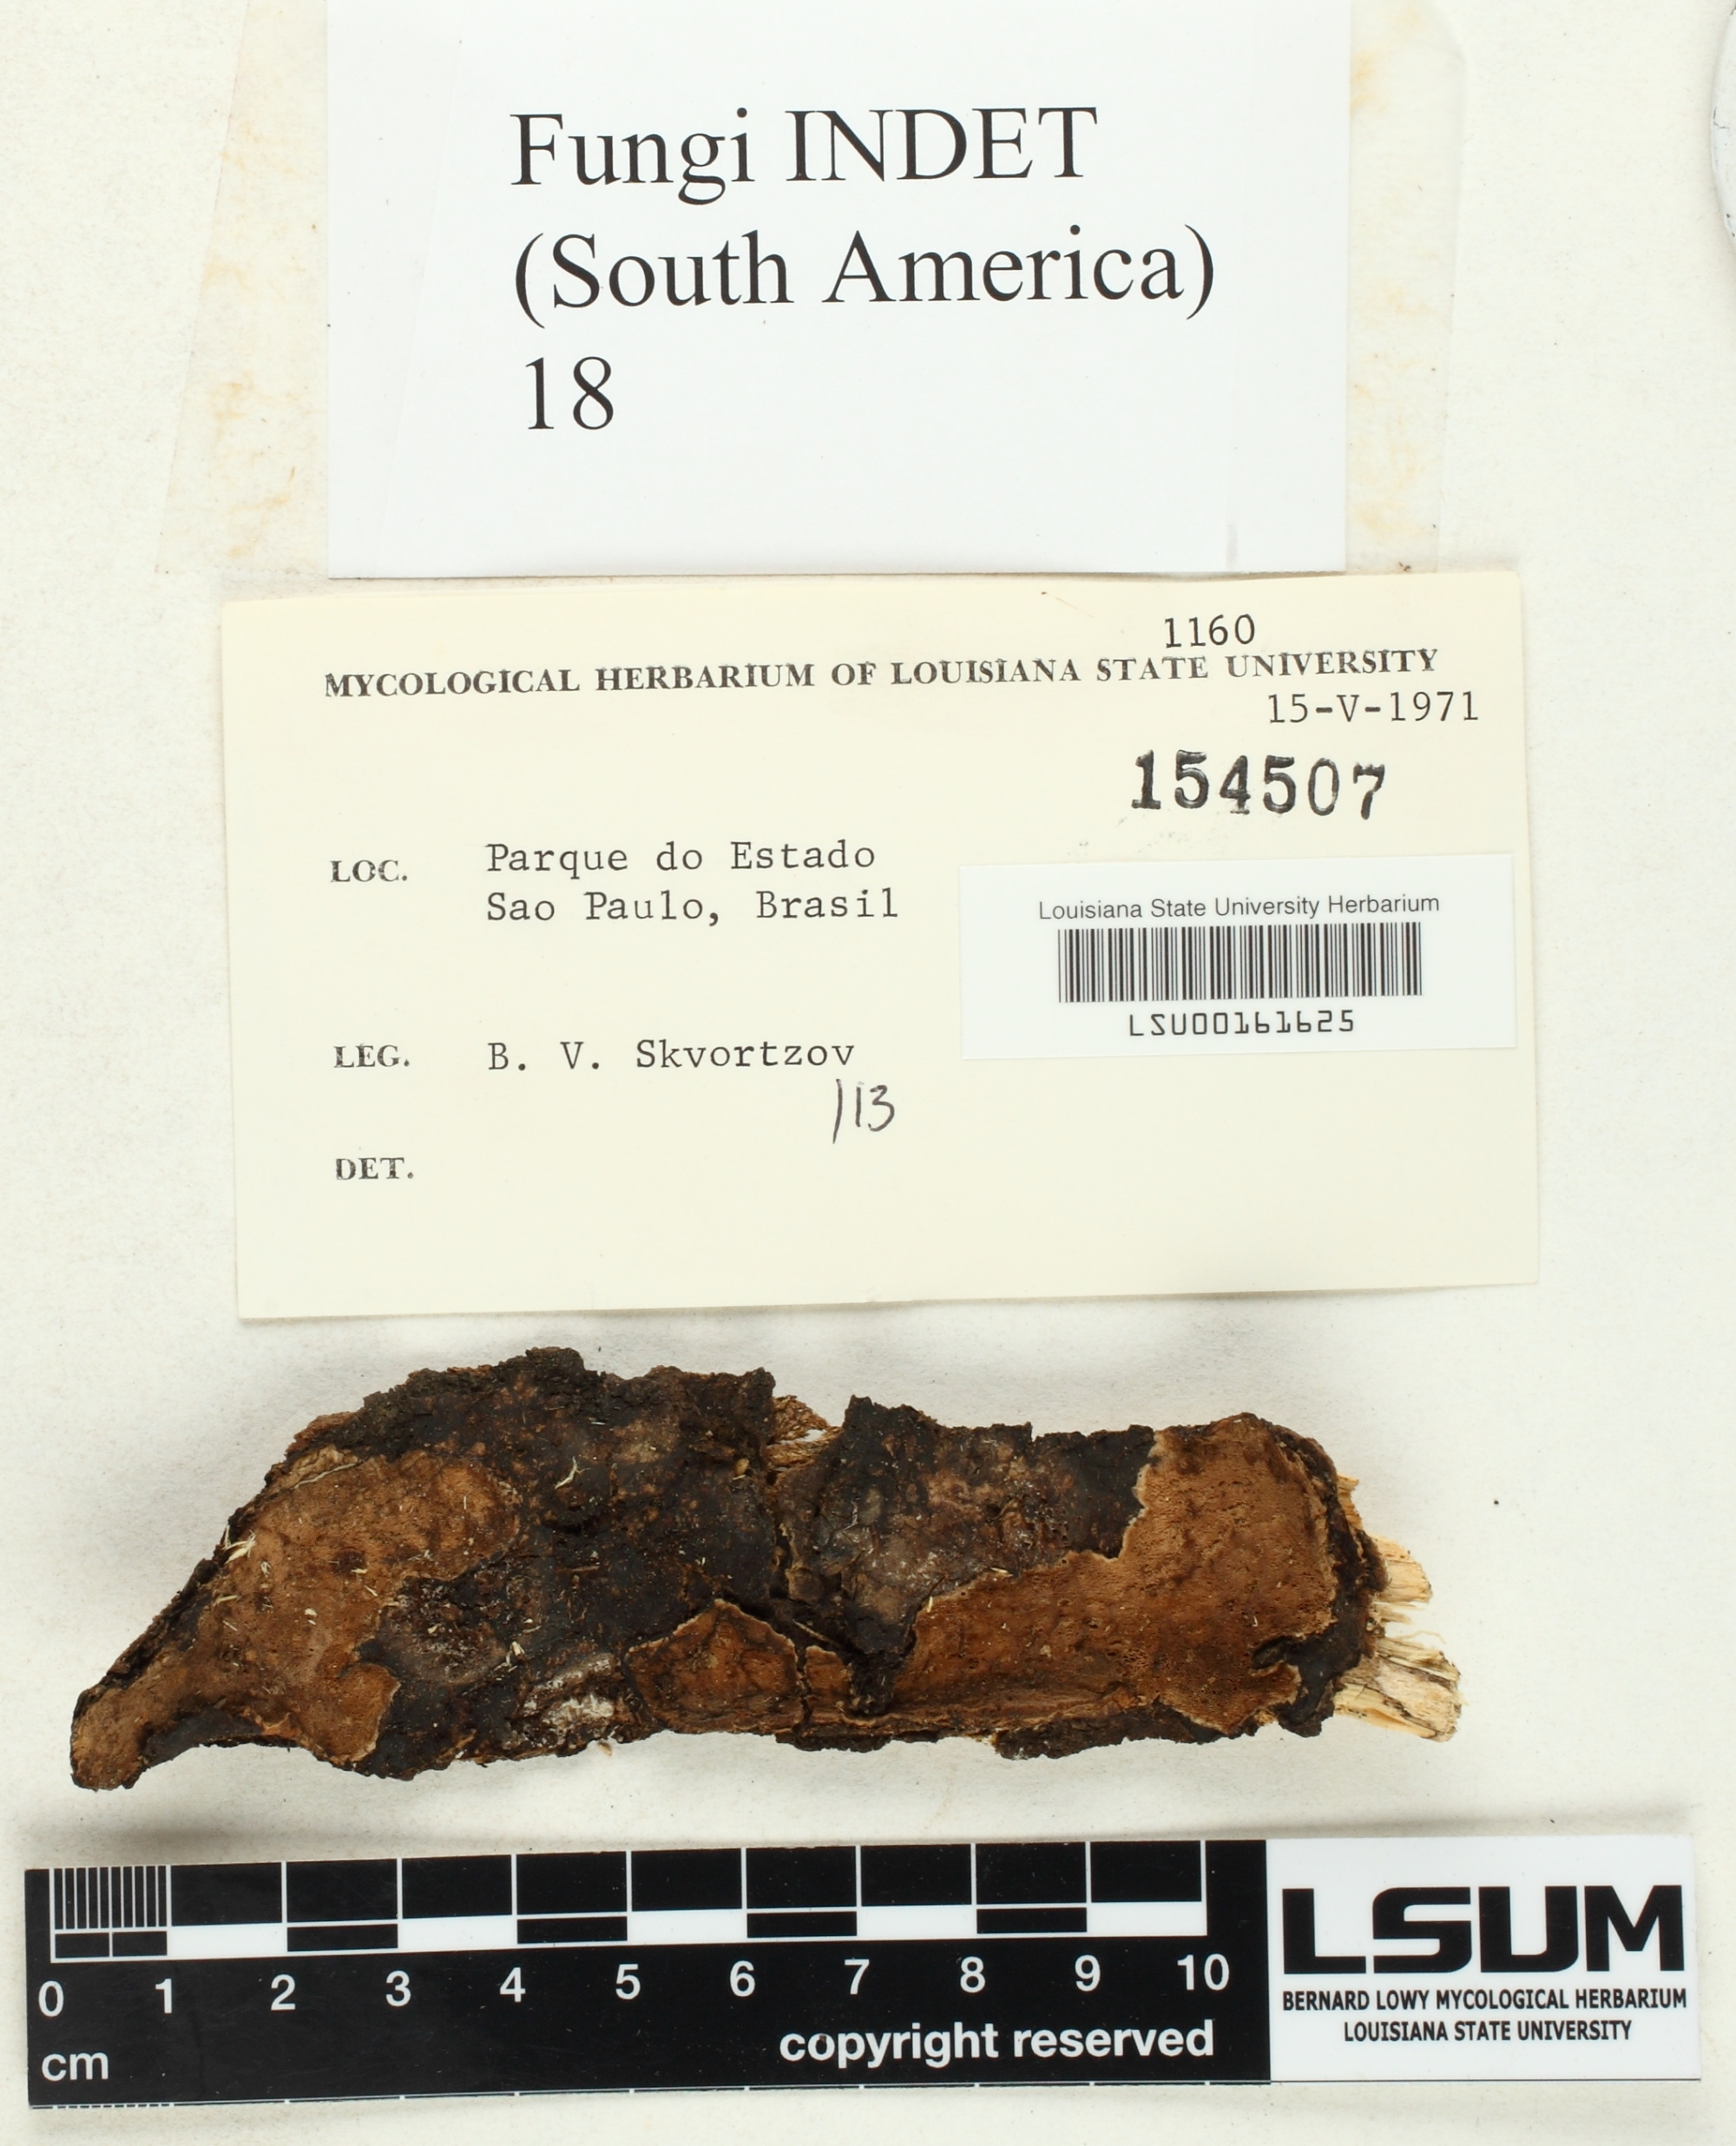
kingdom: Fungi
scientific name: Fungi
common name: Fungi
